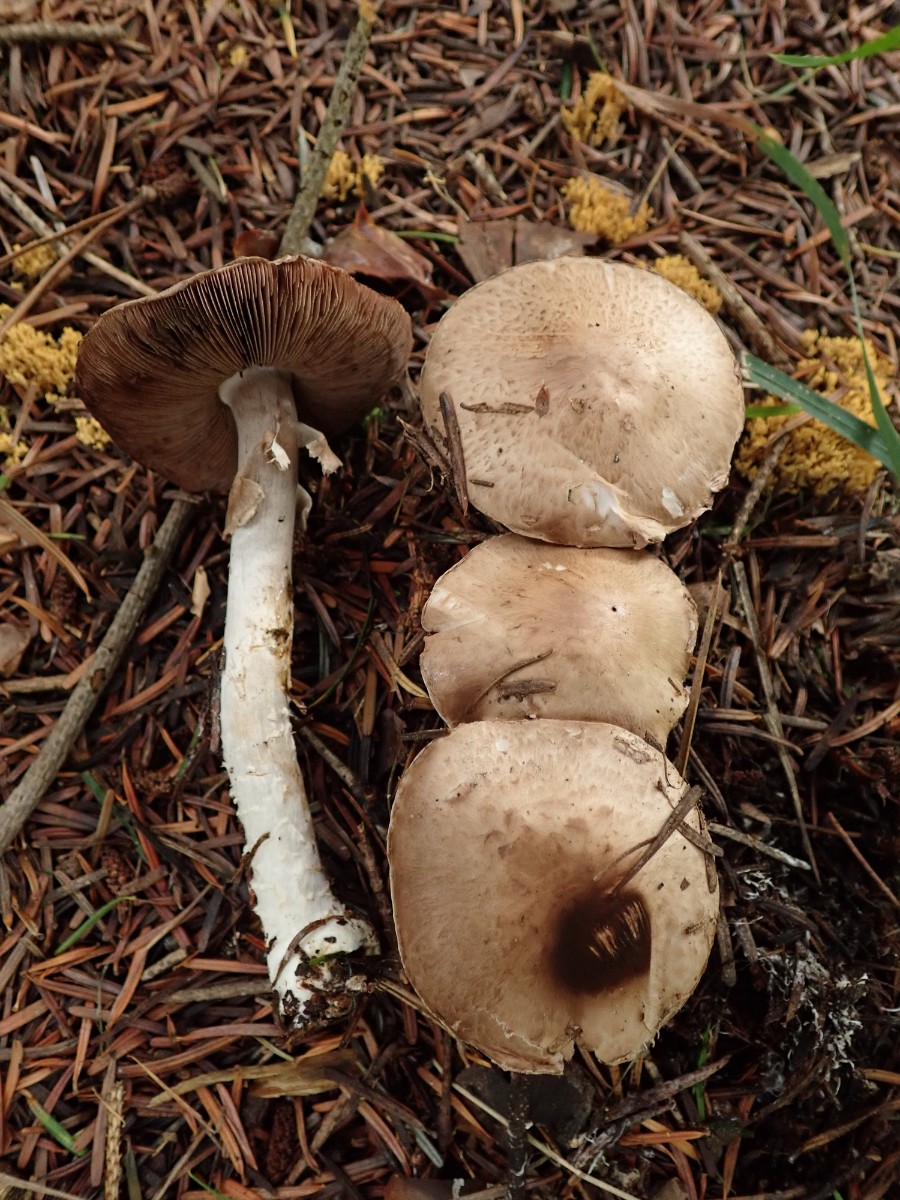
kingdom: Fungi
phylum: Basidiomycota
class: Agaricomycetes
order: Agaricales
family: Agaricaceae
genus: Agaricus
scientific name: Agaricus
